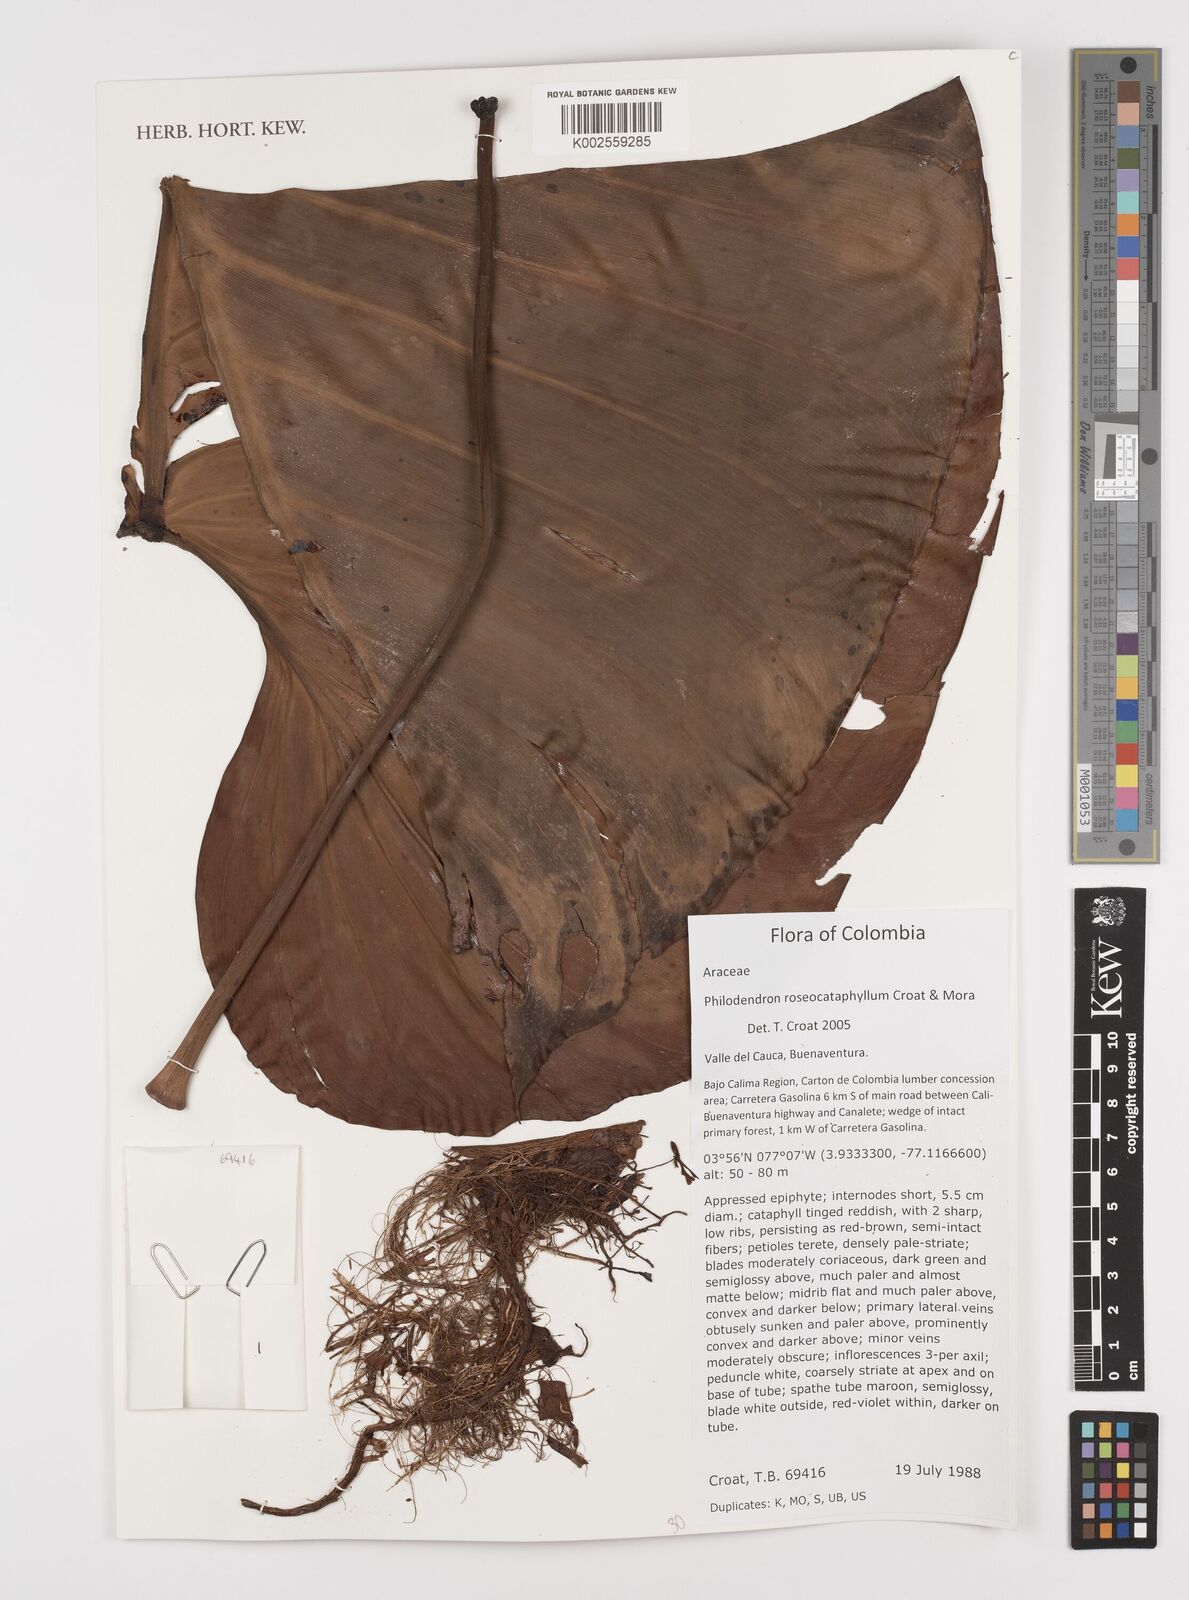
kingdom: Plantae
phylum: Tracheophyta
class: Liliopsida
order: Alismatales
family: Araceae
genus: Philodendron
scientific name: Philodendron roseocataphyllum
